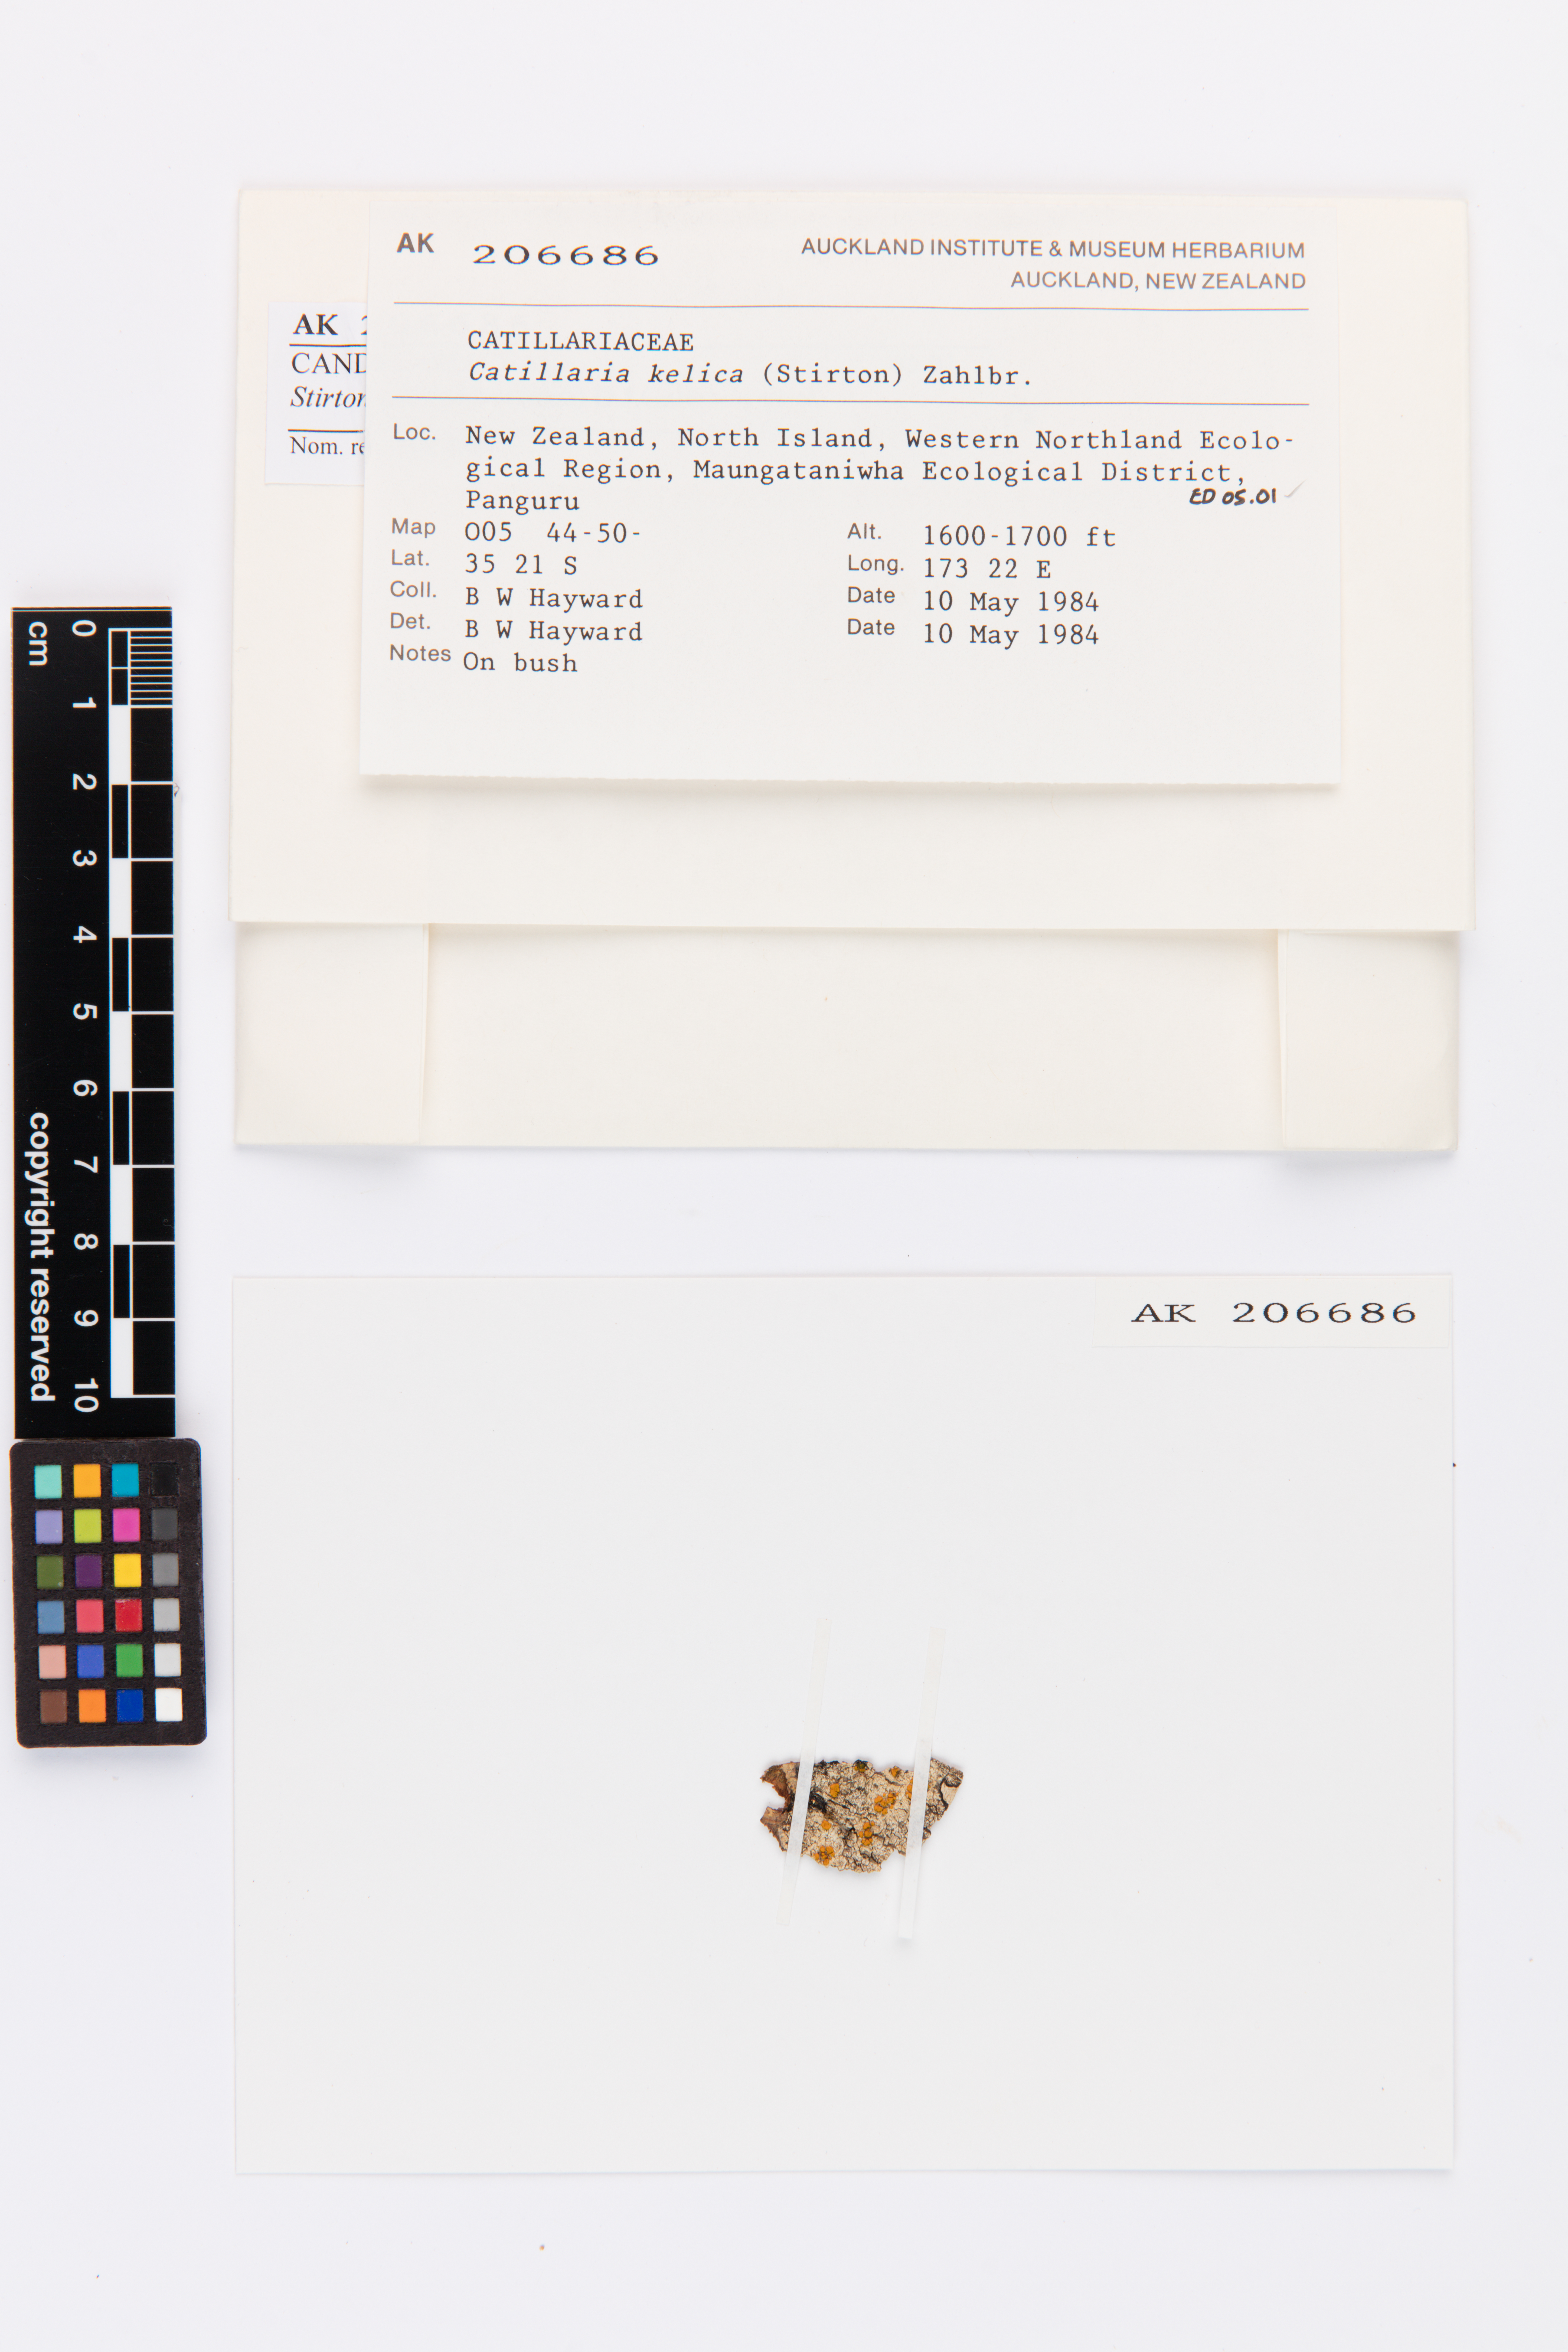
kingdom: Fungi
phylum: Ascomycota
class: Lecanoromycetes
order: Lecanorales
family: Ramalinaceae
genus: Stirtoniella
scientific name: Stirtoniella kelica
